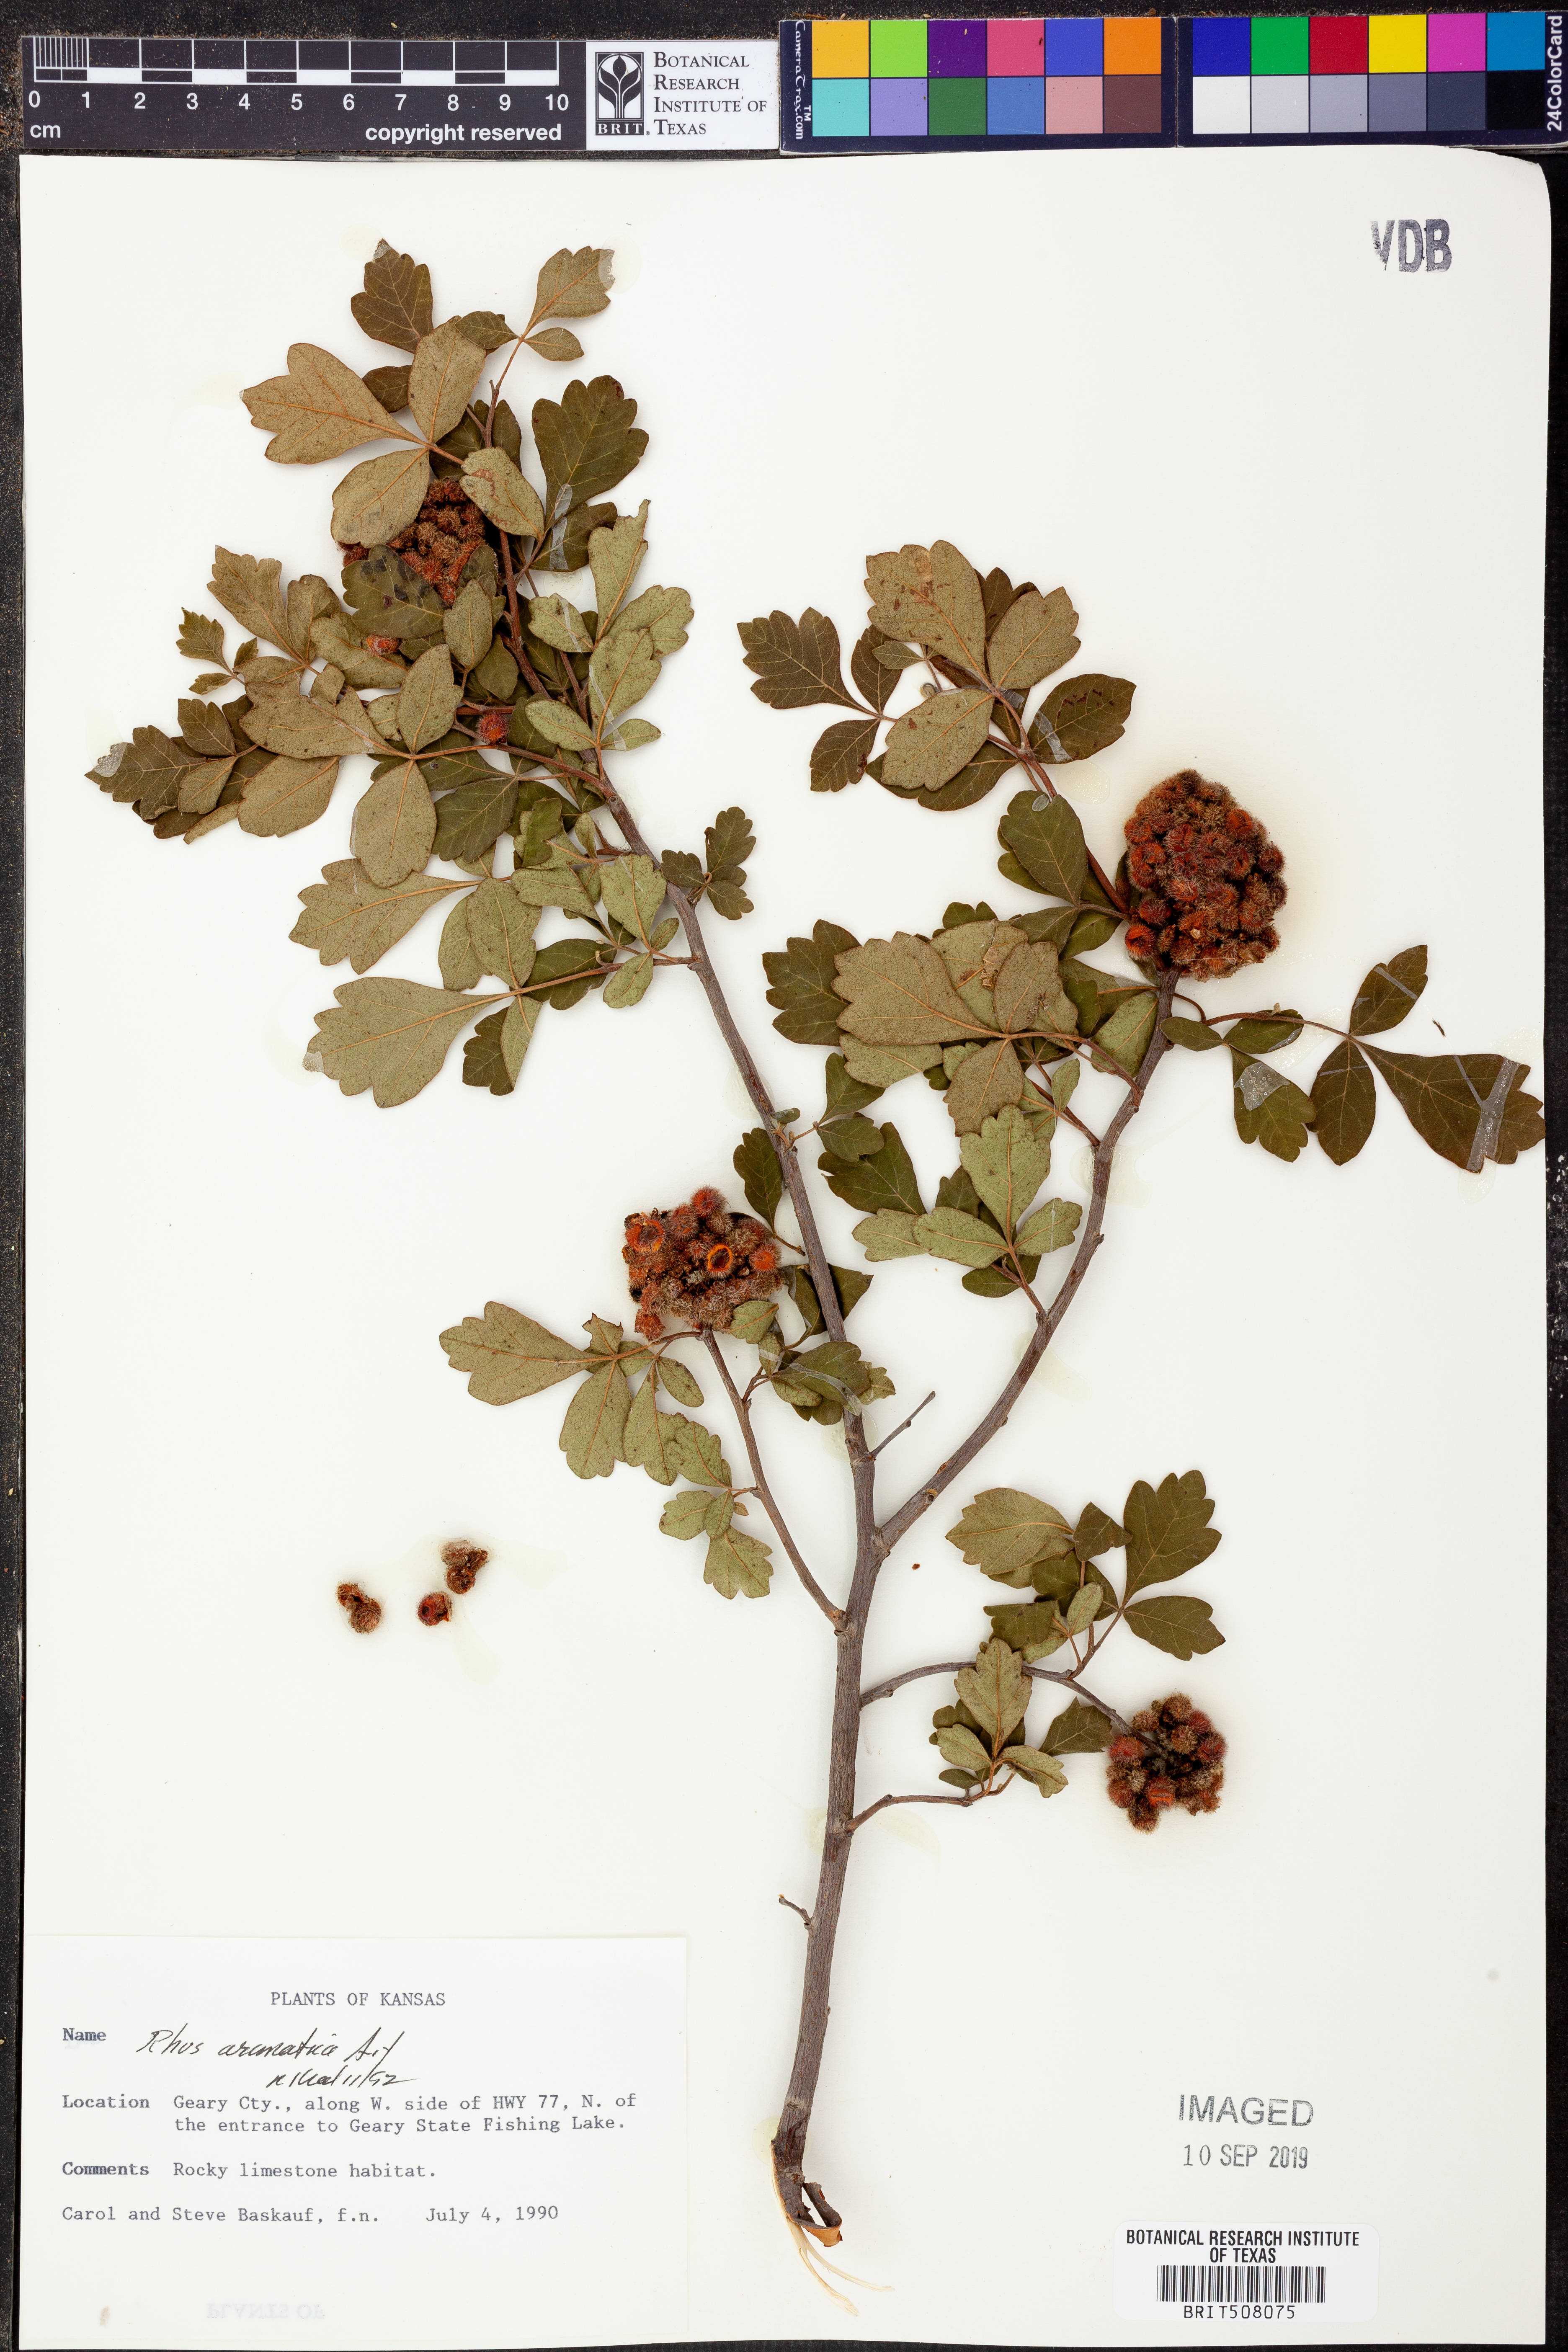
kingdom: Plantae
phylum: Tracheophyta
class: Magnoliopsida
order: Sapindales
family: Anacardiaceae
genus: Rhus
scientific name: Rhus aromatica
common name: Aromatic sumac
